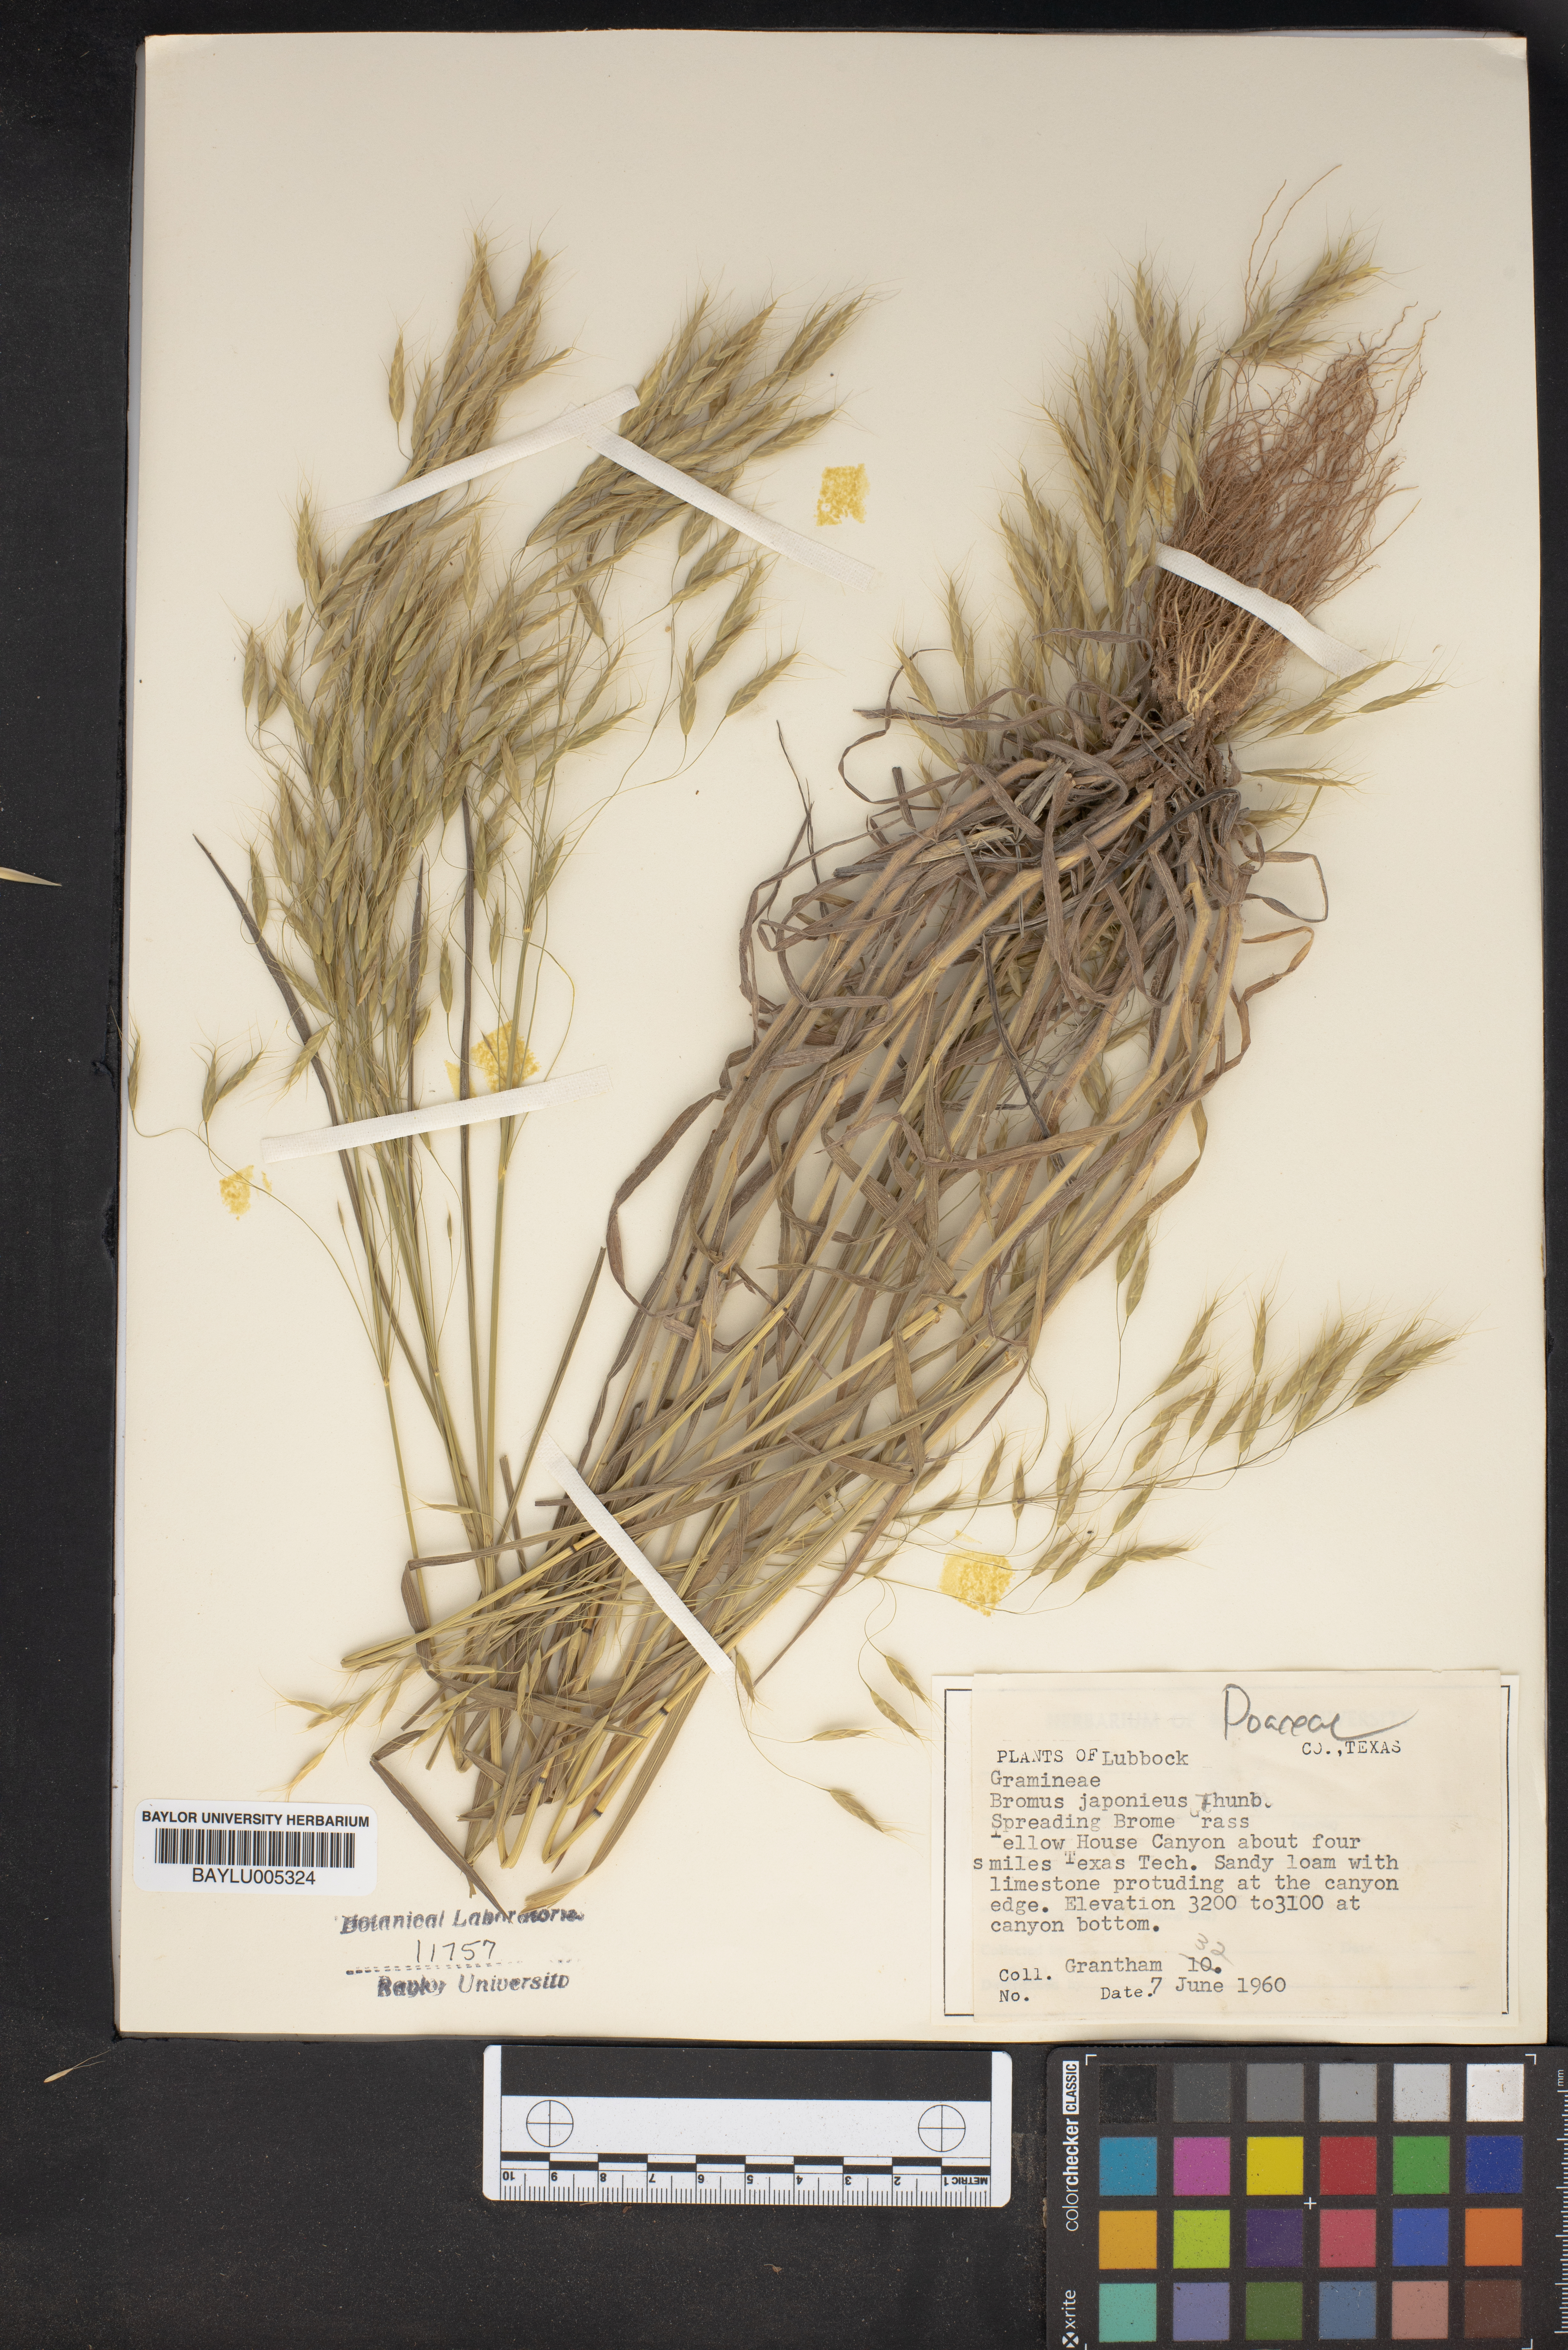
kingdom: Plantae
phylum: Tracheophyta
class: Liliopsida
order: Poales
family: Poaceae
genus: Bromus
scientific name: Bromus japonicus
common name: Japanese brome
